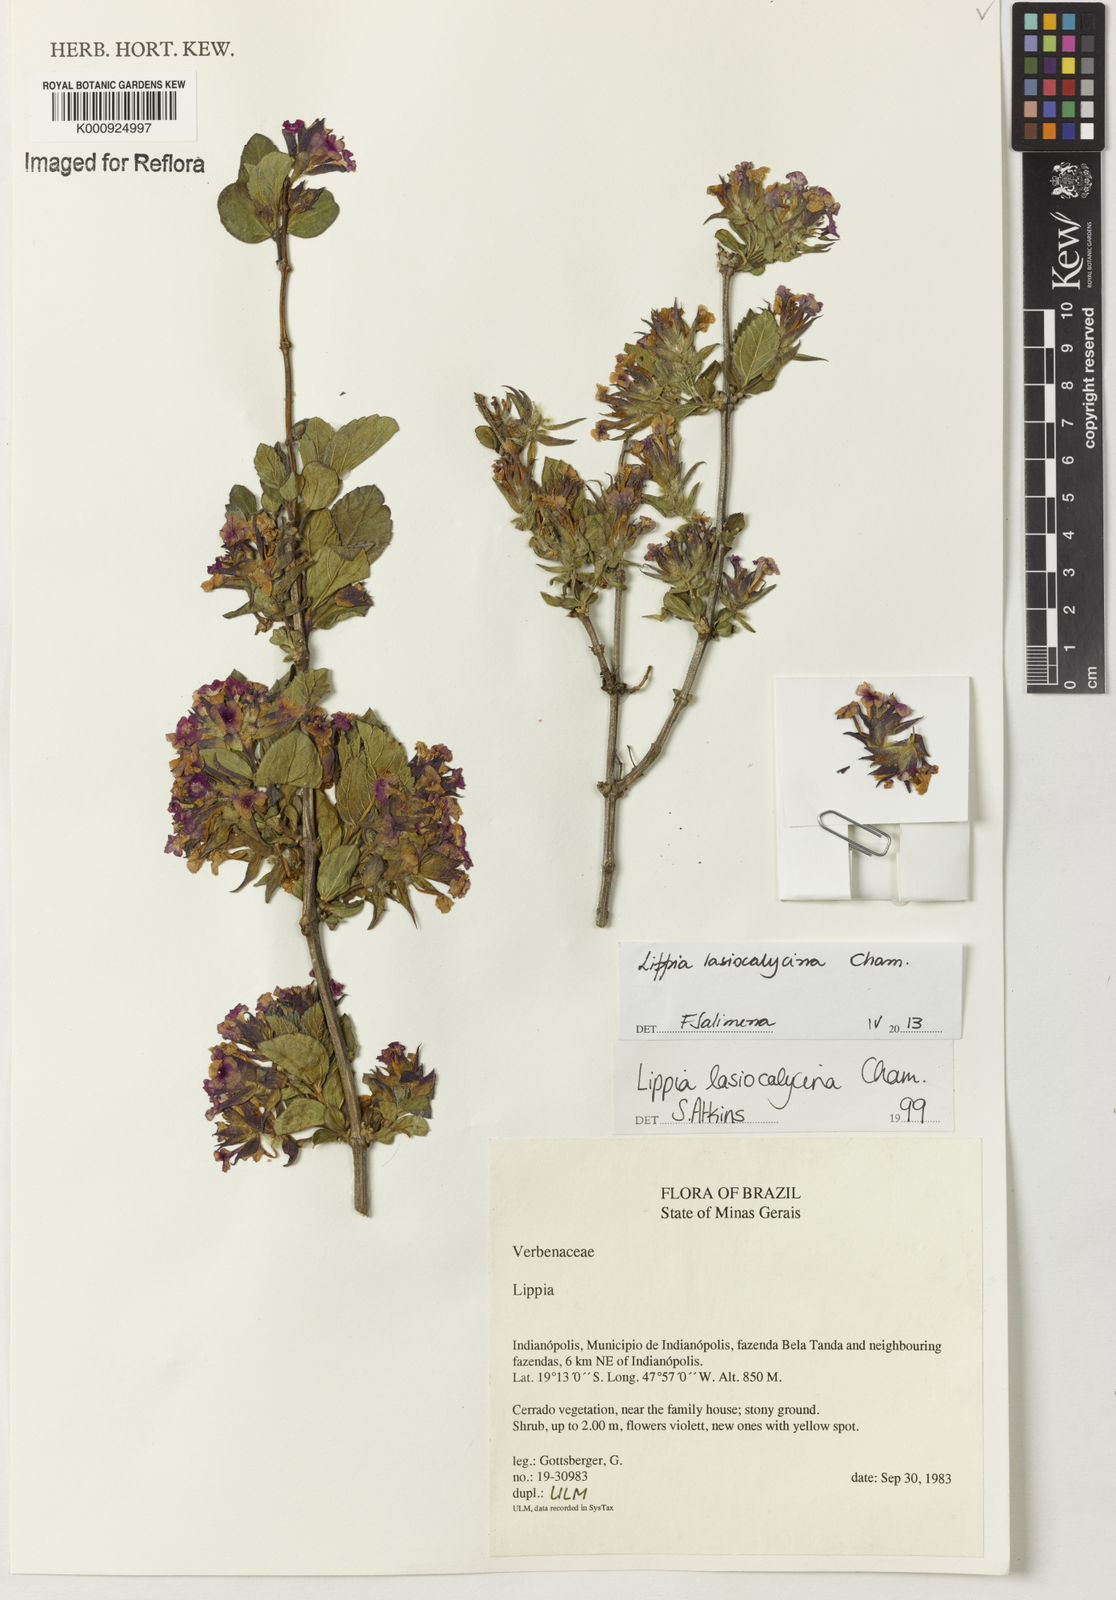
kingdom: Plantae
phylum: Tracheophyta
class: Magnoliopsida
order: Lamiales
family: Verbenaceae
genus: Lippia
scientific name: Lippia lasiocalycina
